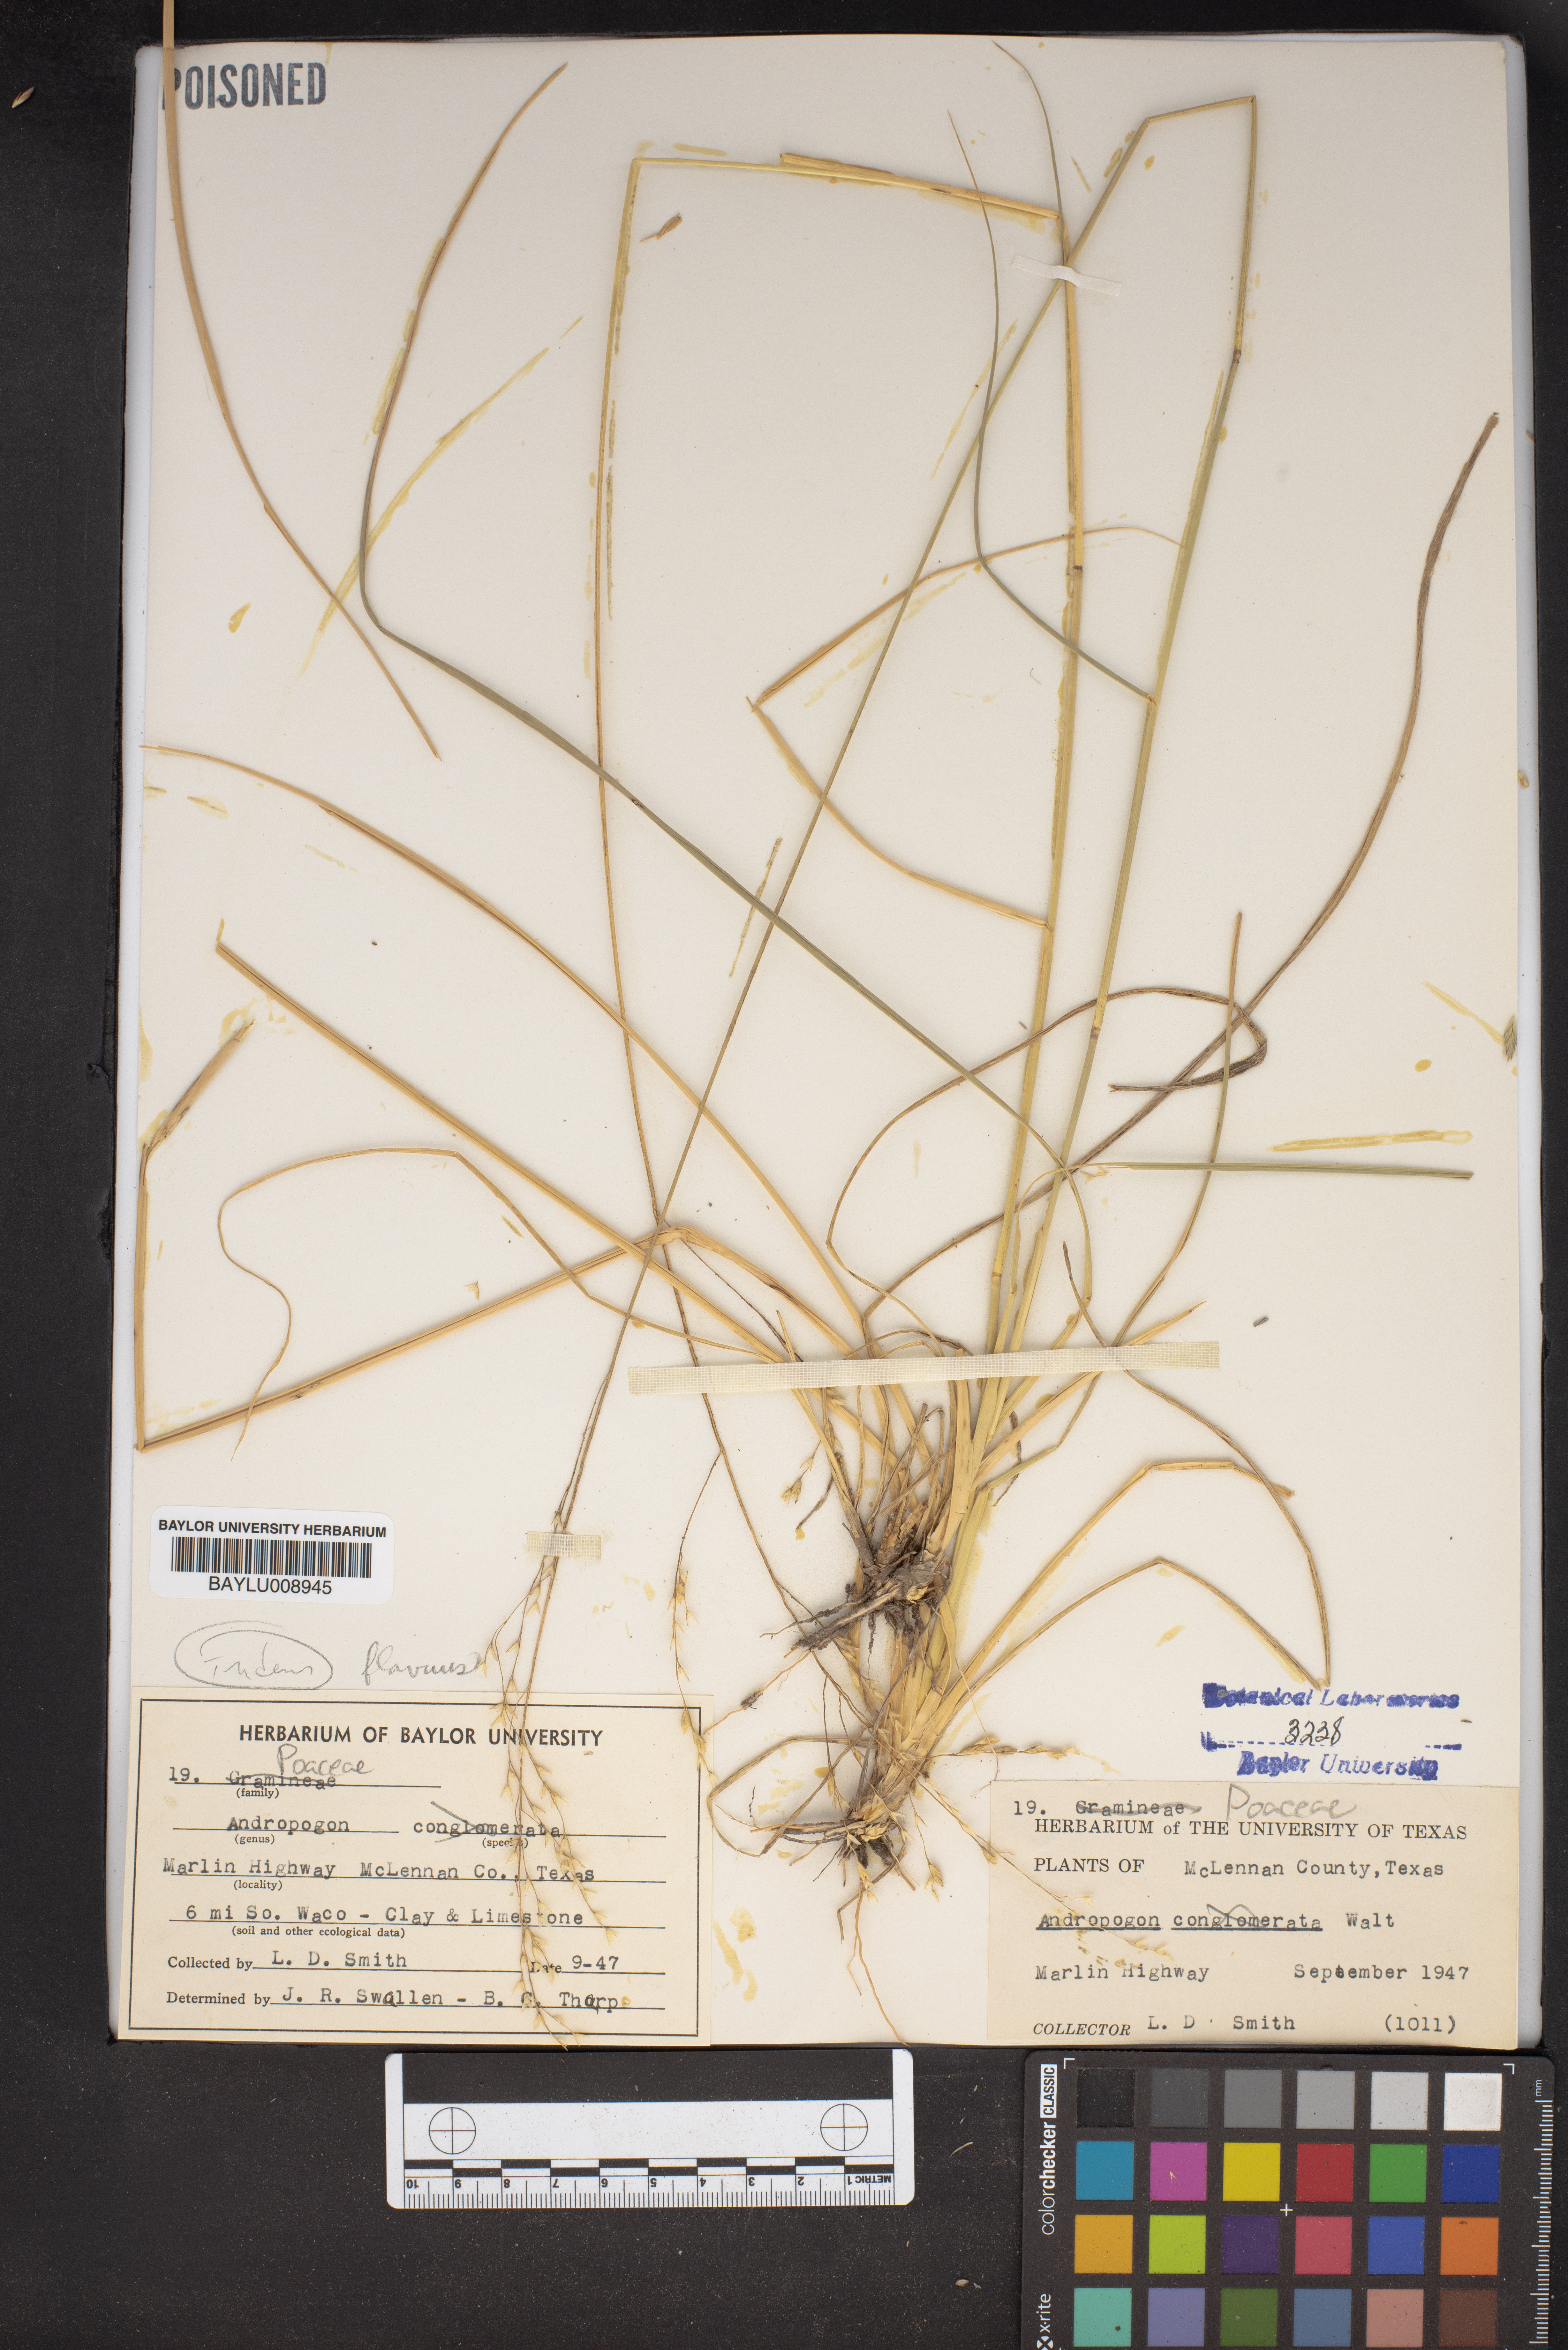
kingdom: Plantae
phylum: Tracheophyta
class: Liliopsida
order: Poales
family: Poaceae
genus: Andropogon
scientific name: Andropogon
